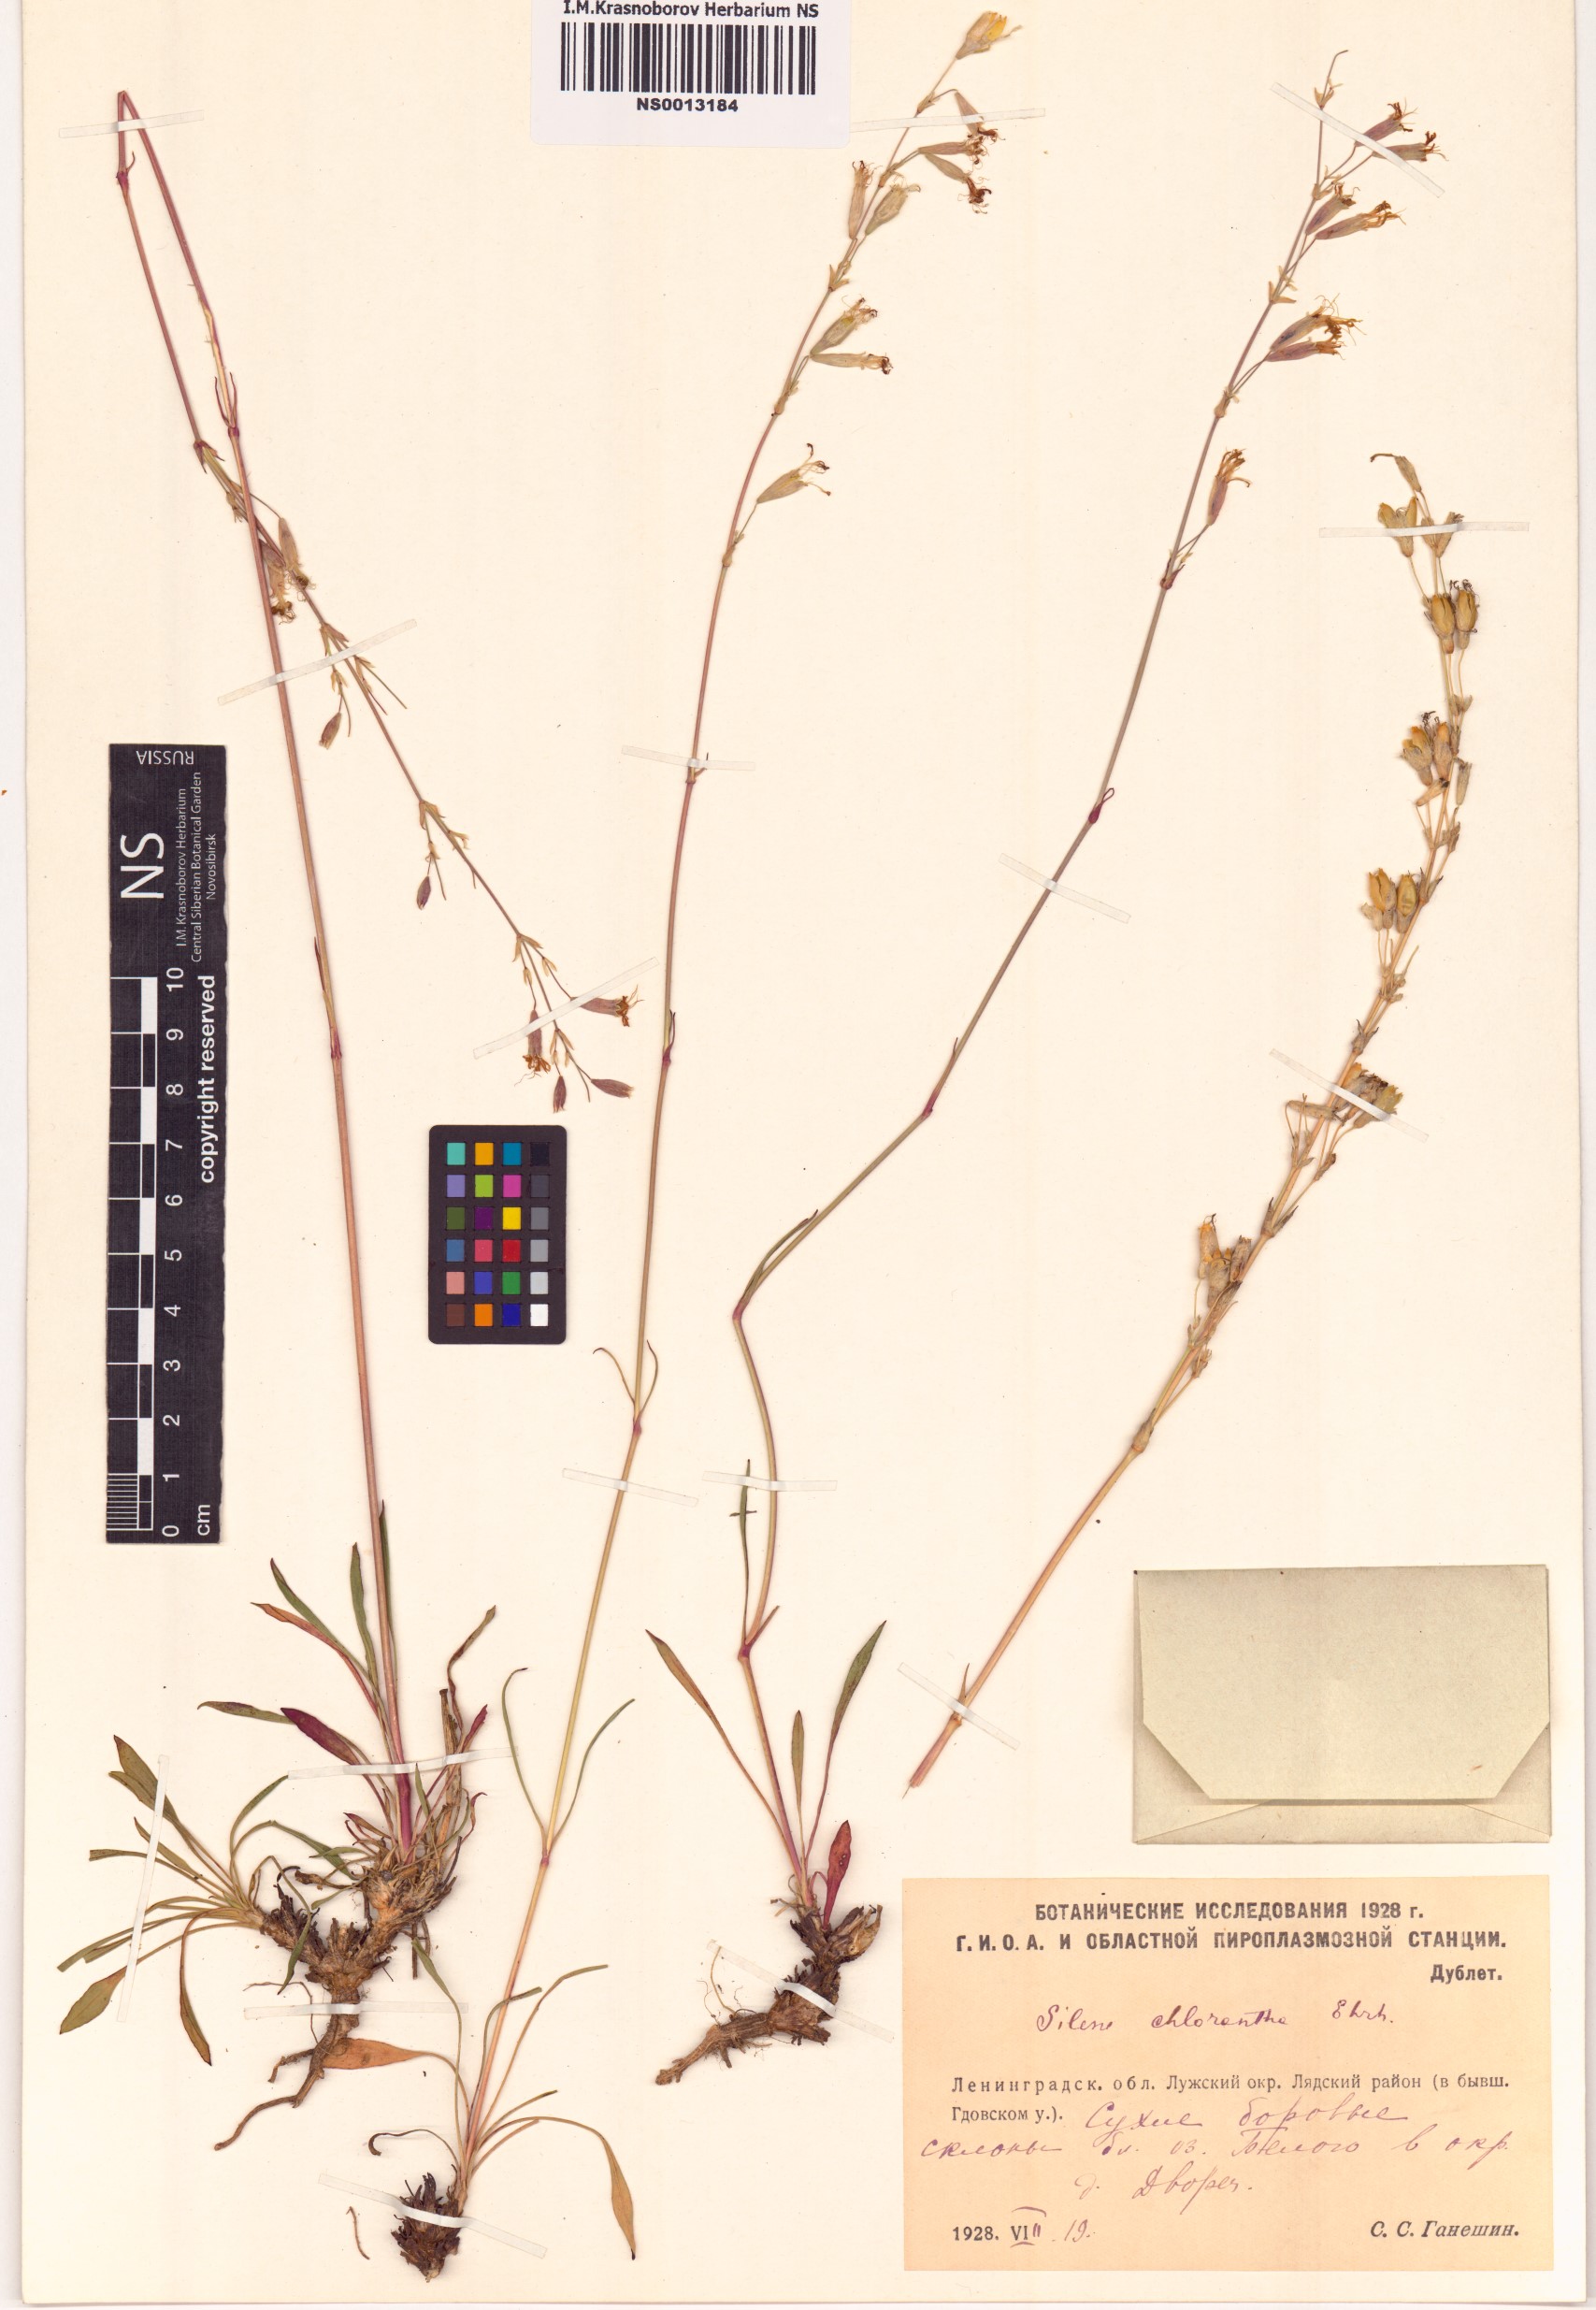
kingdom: Plantae
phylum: Tracheophyta
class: Magnoliopsida
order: Caryophyllales
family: Caryophyllaceae
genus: Silene
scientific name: Silene chlorantha
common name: Yellowgreen catchfly
